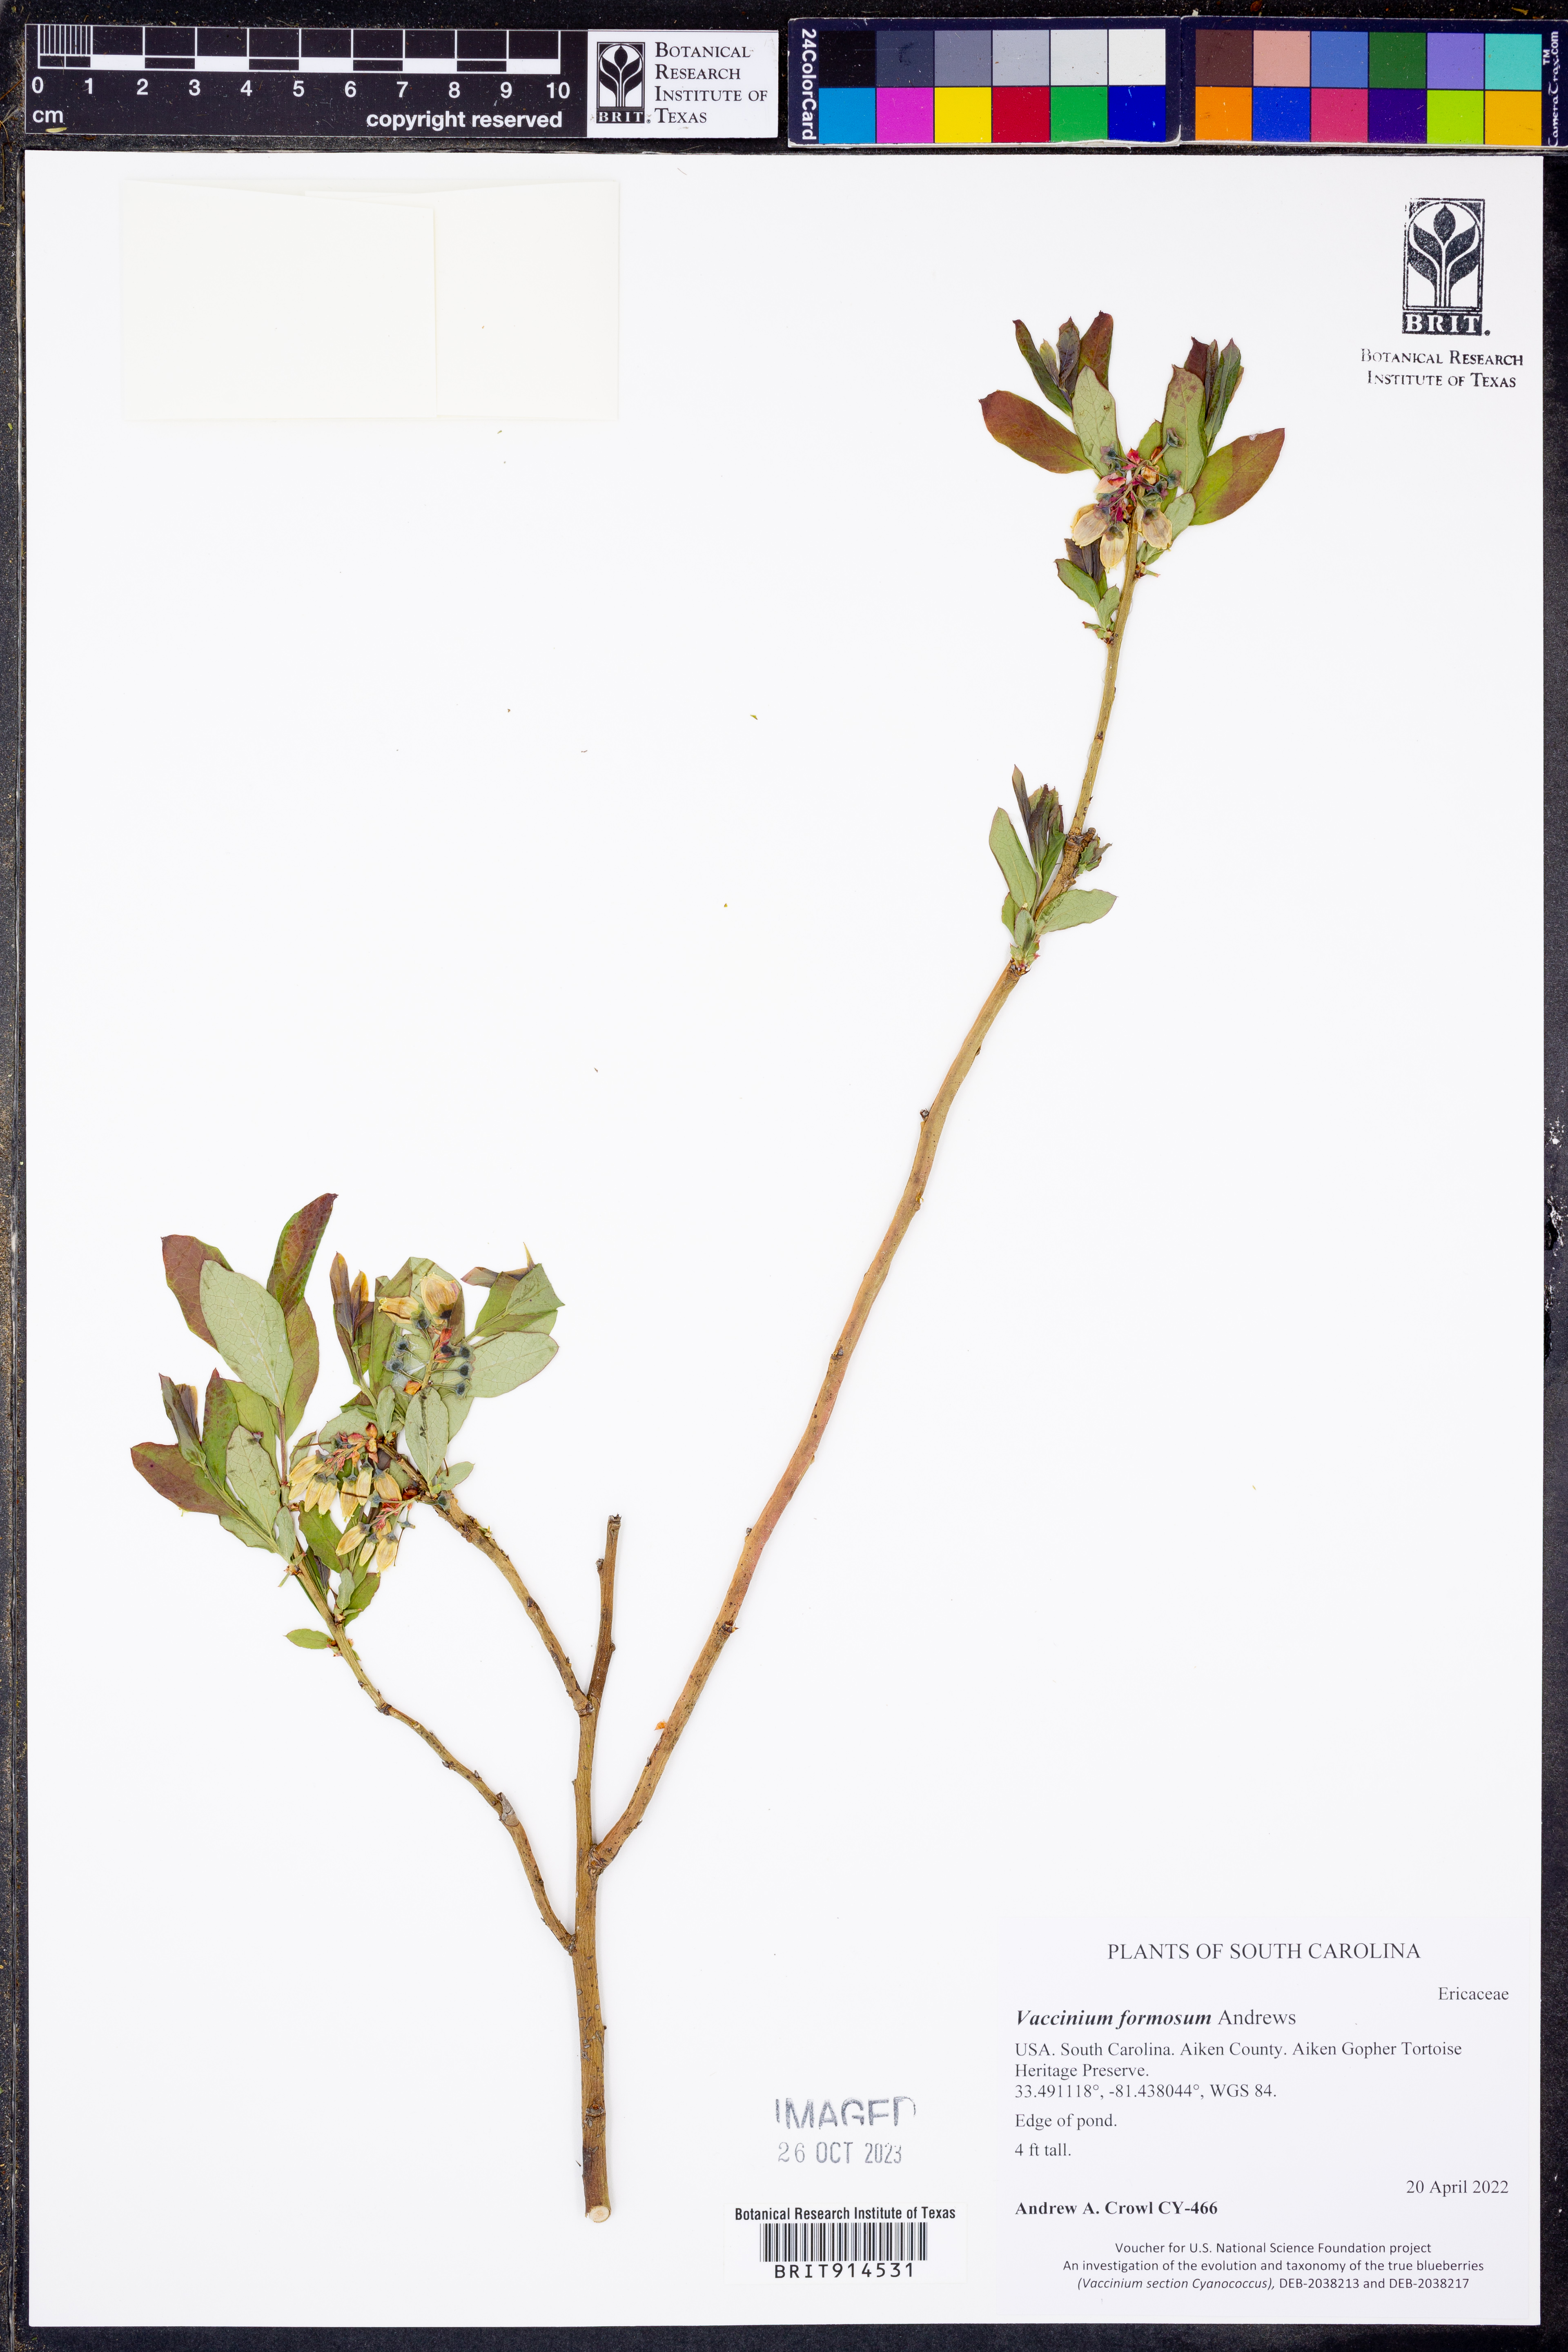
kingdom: Plantae
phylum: Tracheophyta
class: Magnoliopsida
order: Ericales
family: Ericaceae
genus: Vaccinium
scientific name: Vaccinium corymbosum
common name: Blueberry
